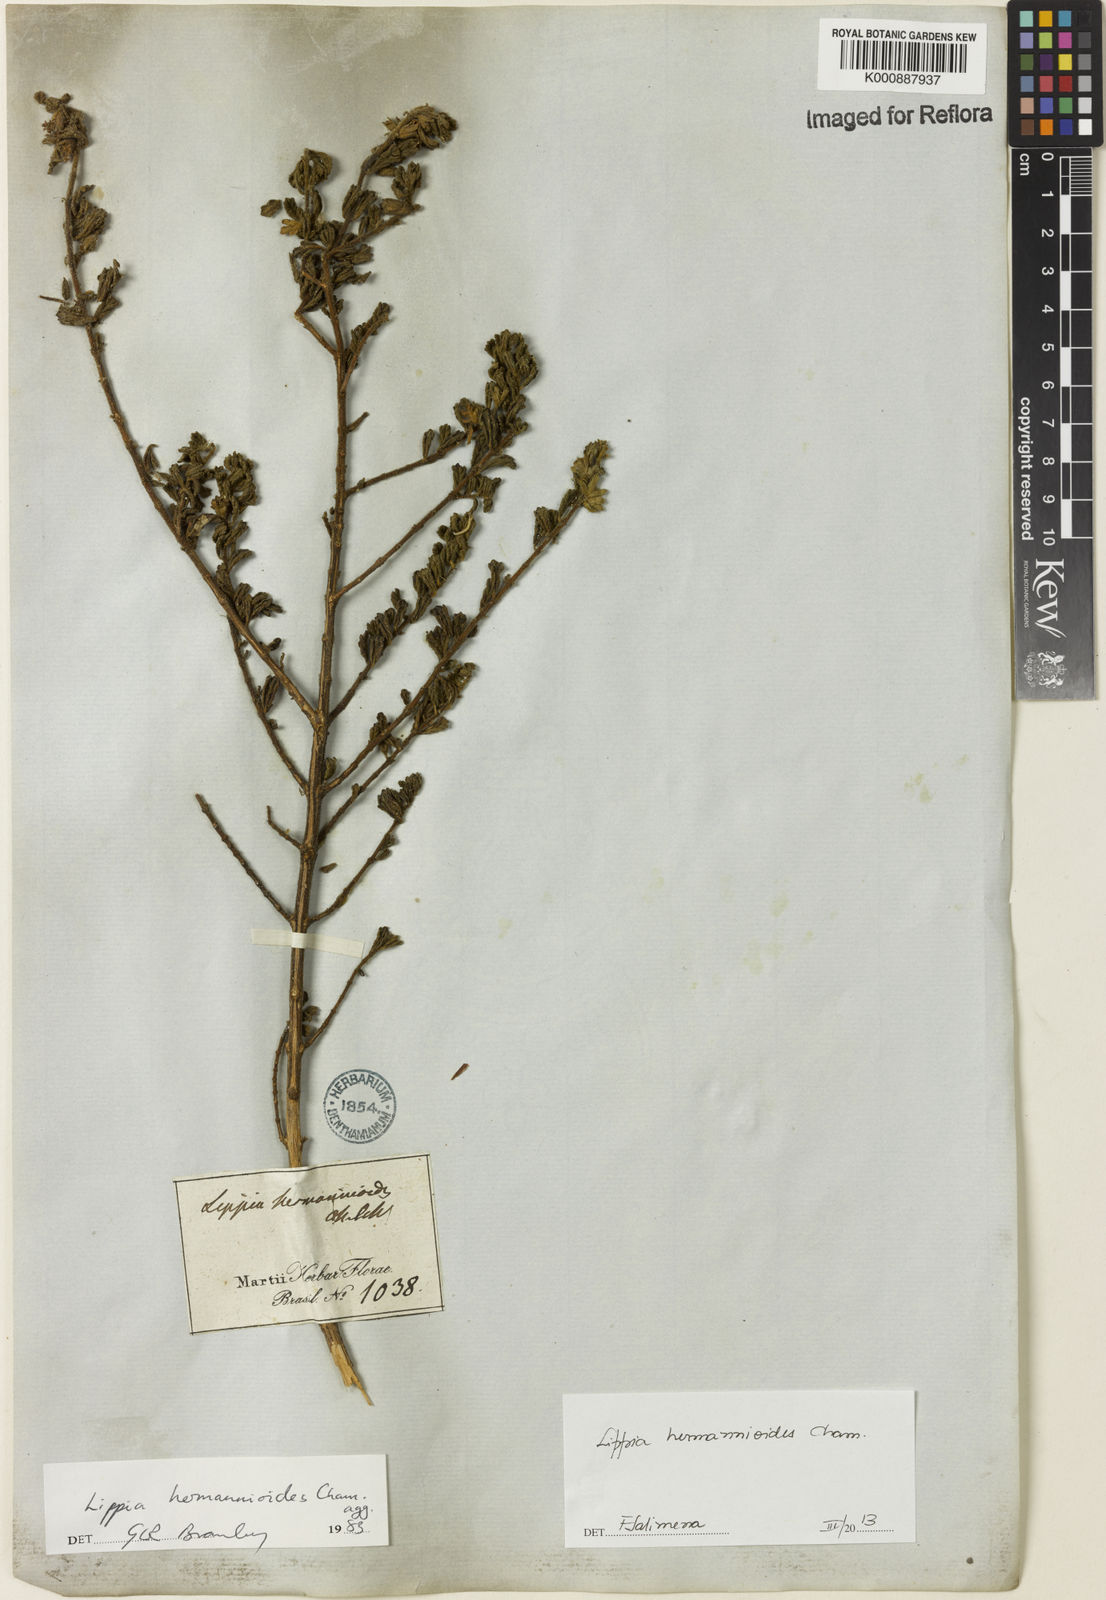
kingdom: Plantae
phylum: Tracheophyta
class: Magnoliopsida
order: Lamiales
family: Verbenaceae
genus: Lippia
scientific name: Lippia hermannioides
